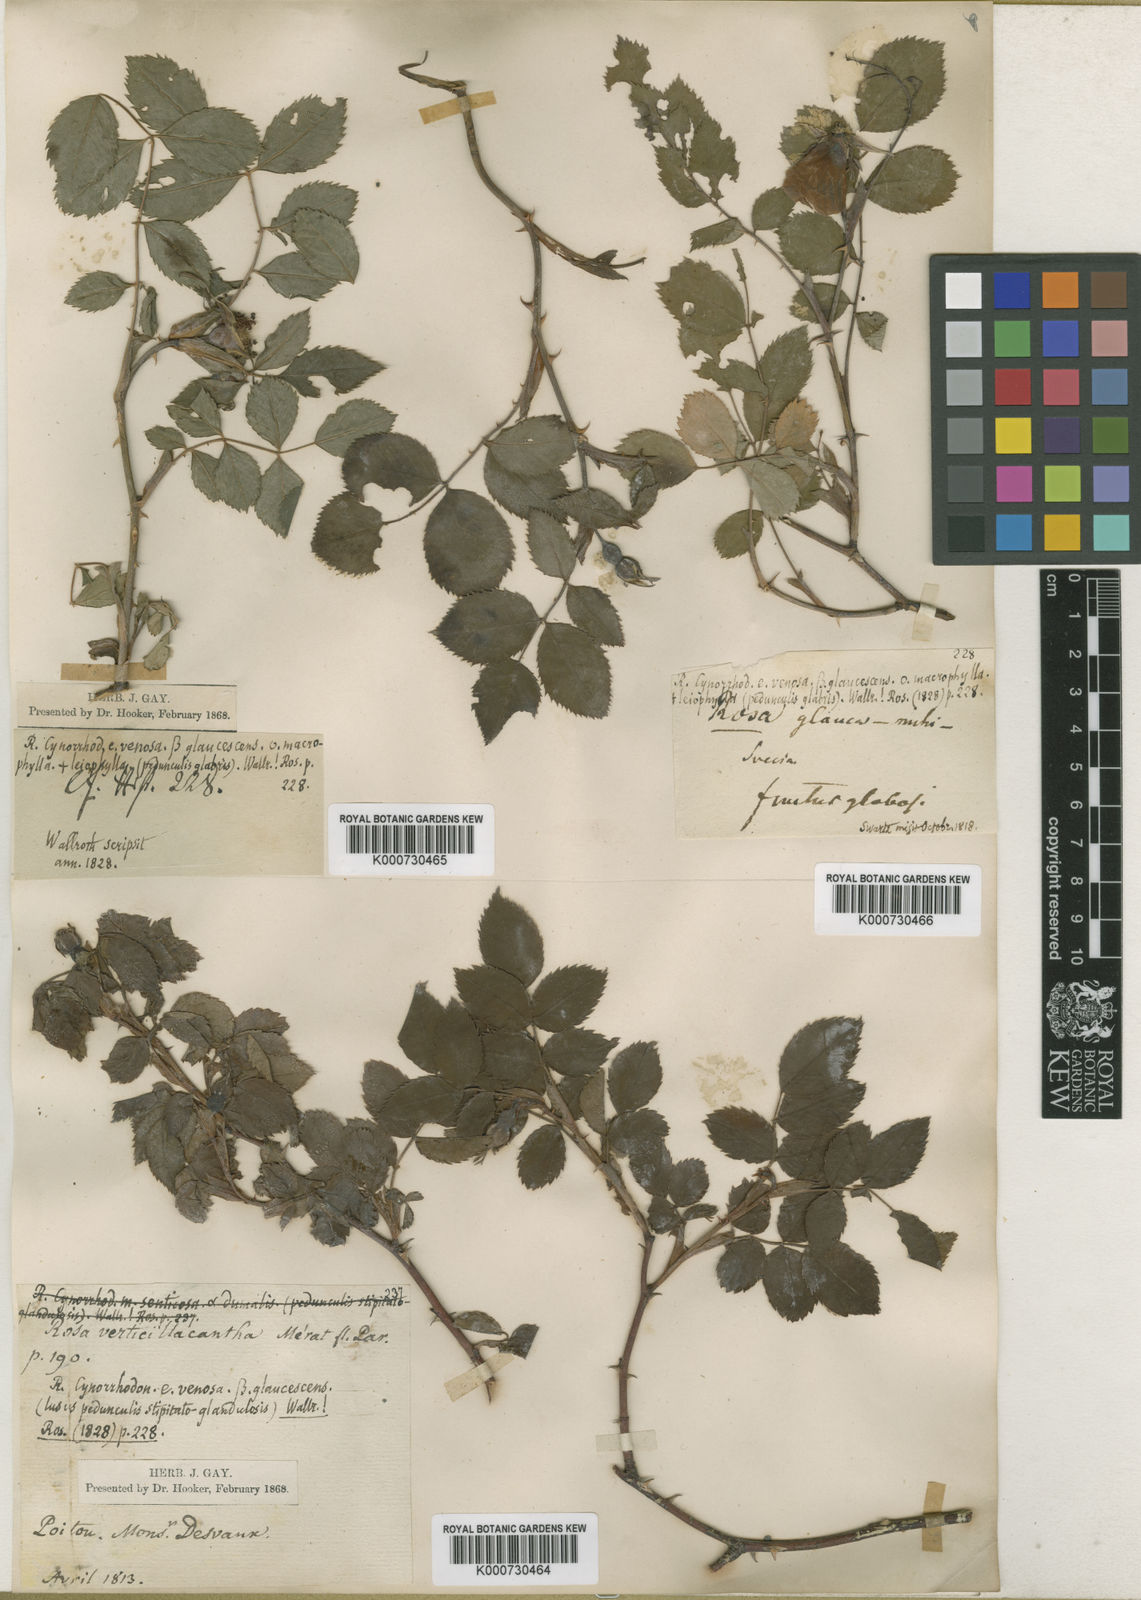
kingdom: Plantae
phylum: Tracheophyta
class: Magnoliopsida
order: Rosales
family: Rosaceae
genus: Rosa
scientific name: Rosa canina
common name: Dog rose
